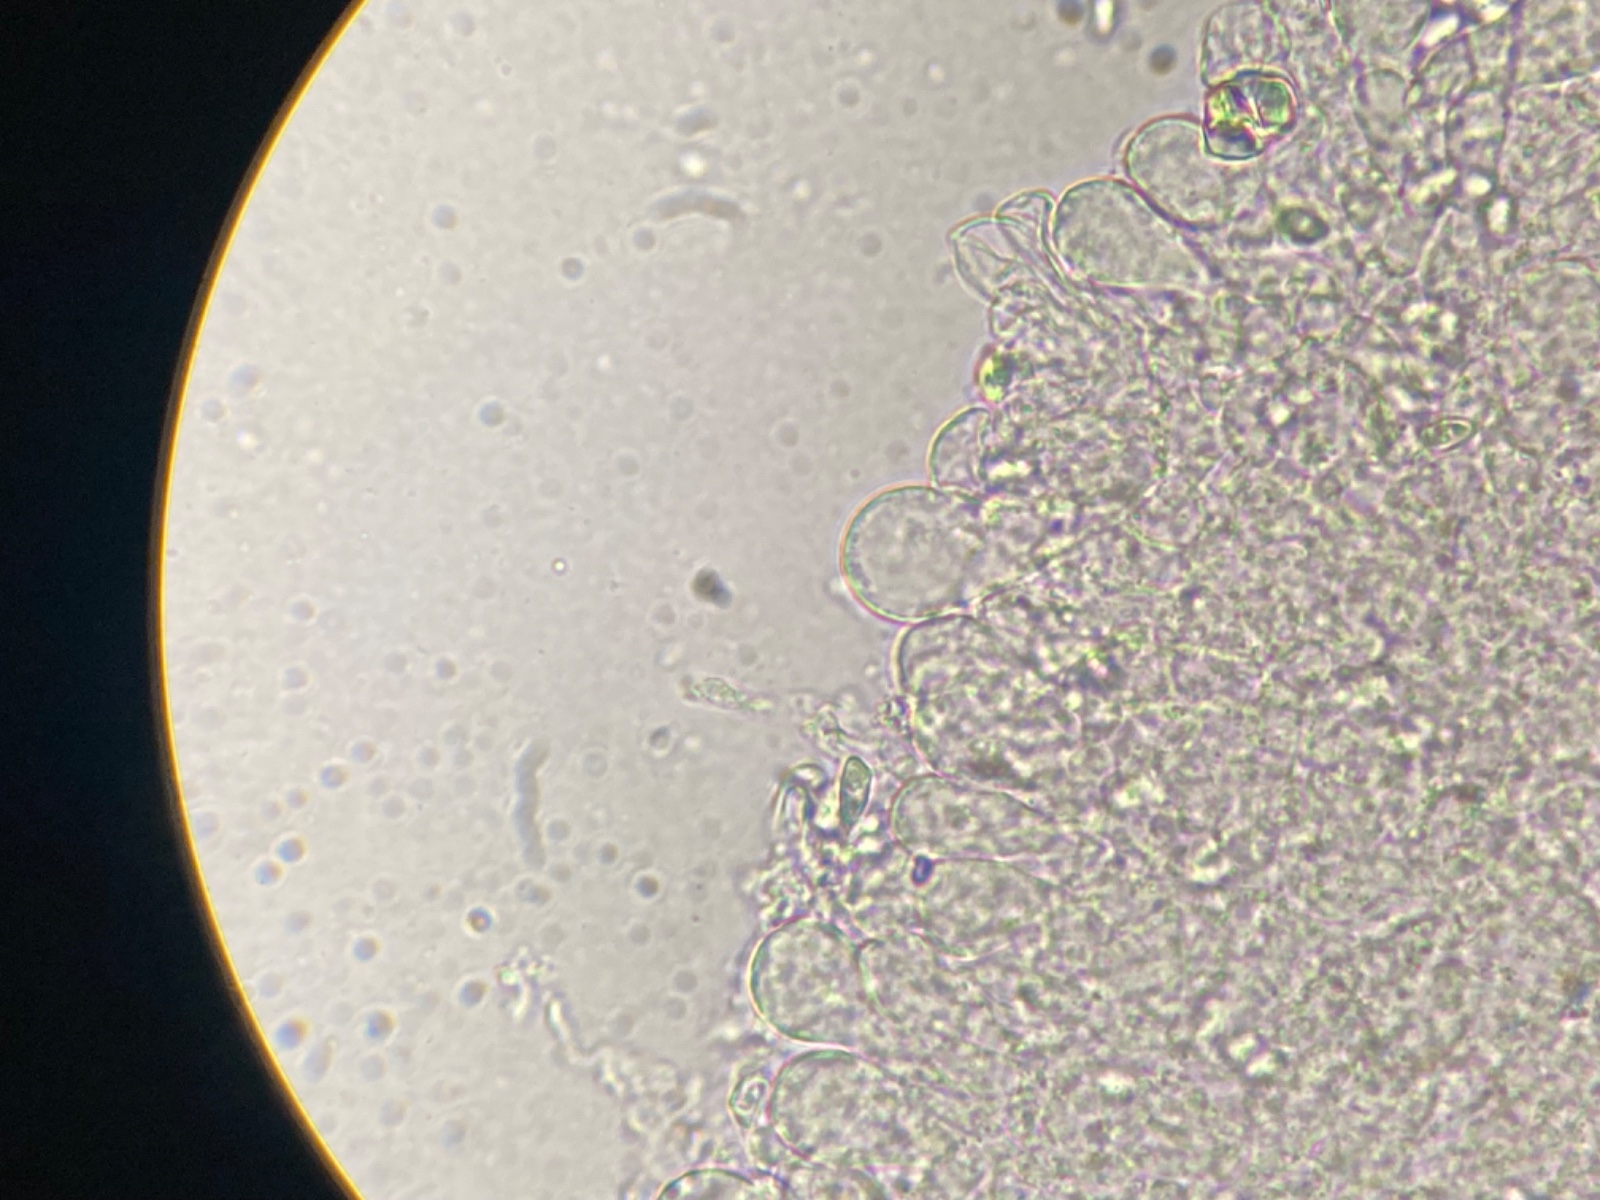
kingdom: Fungi
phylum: Basidiomycota
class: Agaricomycetes
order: Agaricales
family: Agaricaceae
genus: Lepiota
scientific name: Lepiota cristata
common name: stinkende parasolhat
